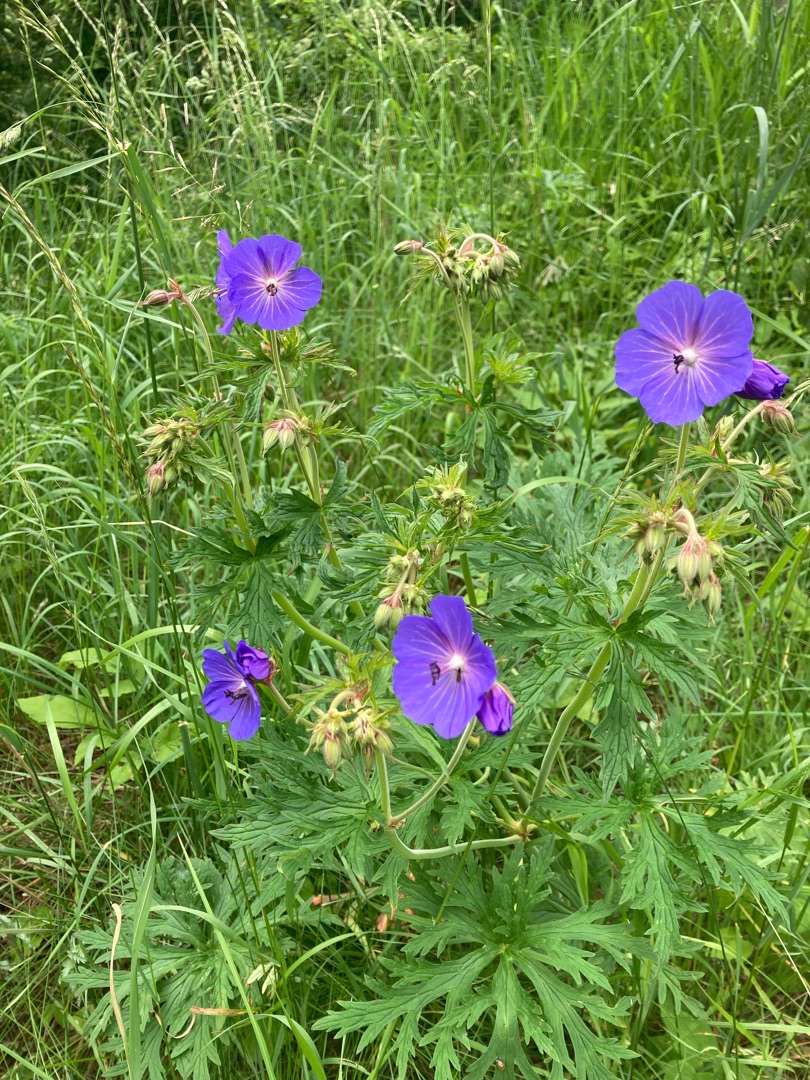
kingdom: Plantae
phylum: Tracheophyta
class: Magnoliopsida
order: Geraniales
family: Geraniaceae
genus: Geranium
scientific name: Geranium pratense
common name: Eng-storkenæb
